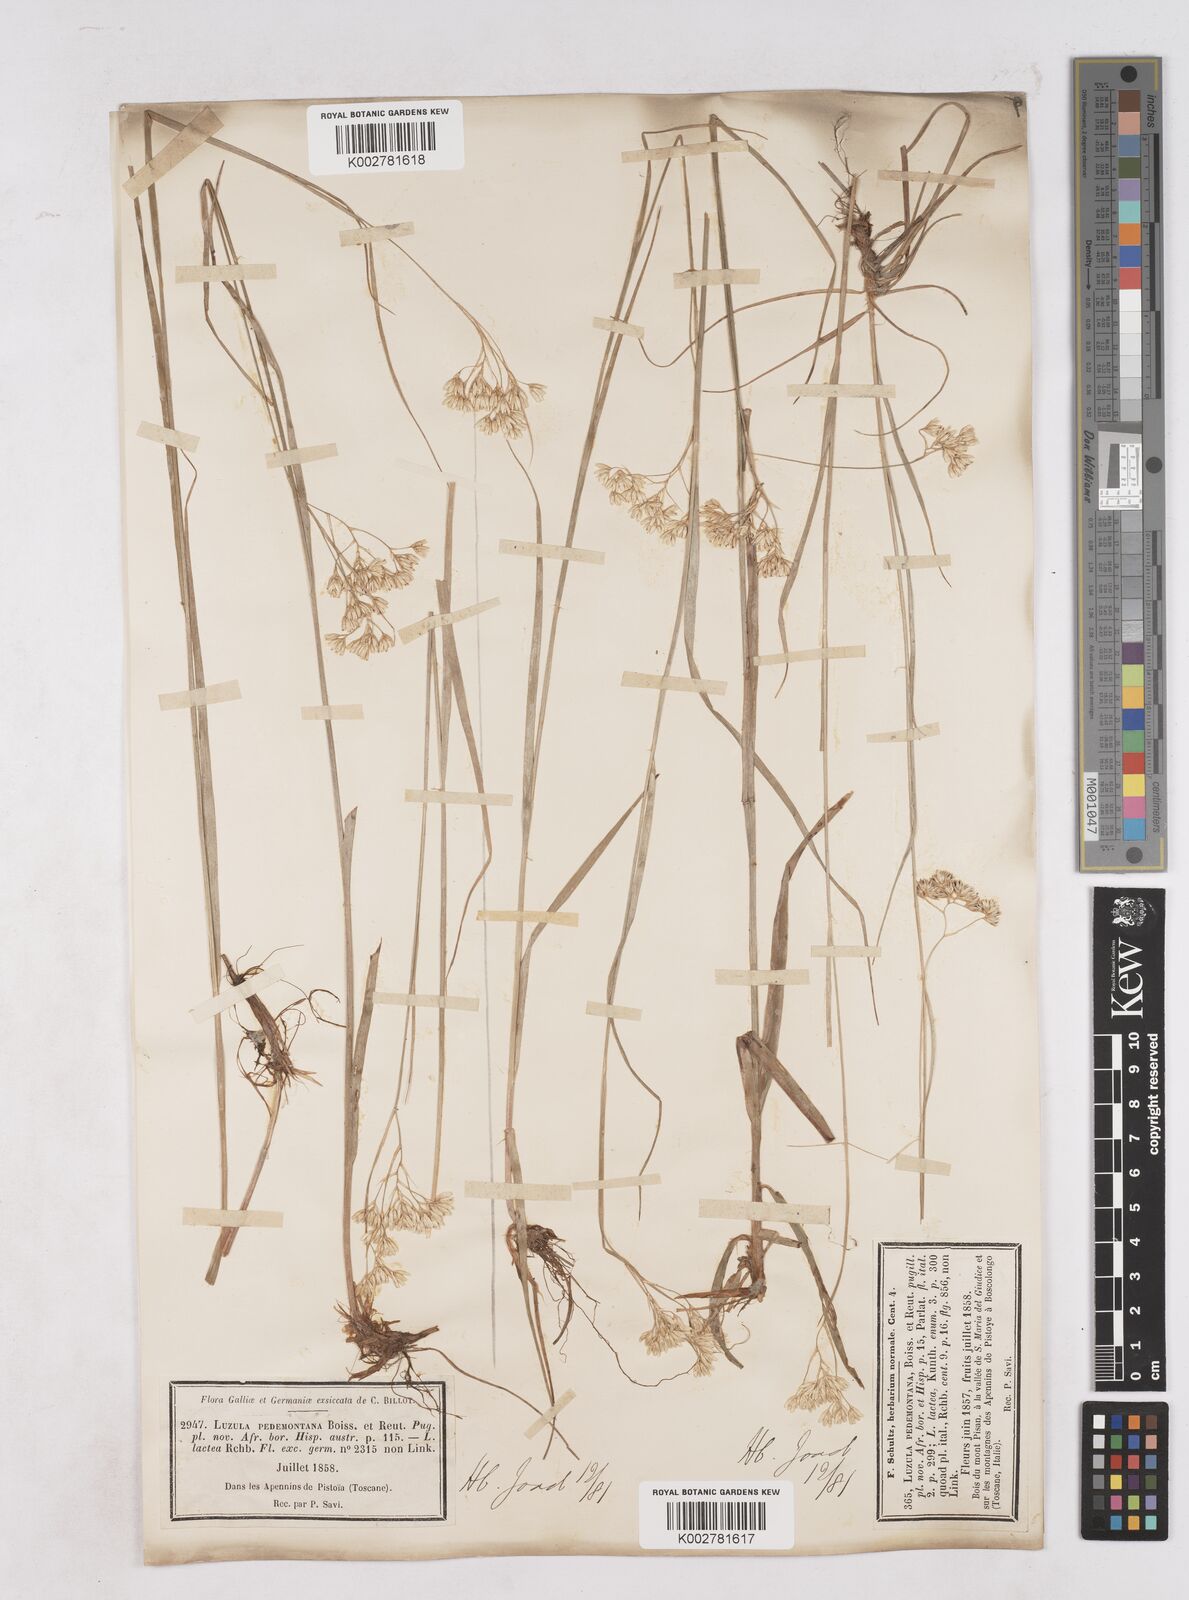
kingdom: Plantae
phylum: Tracheophyta
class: Liliopsida
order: Poales
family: Juncaceae
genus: Luzula
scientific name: Luzula pedemontana
